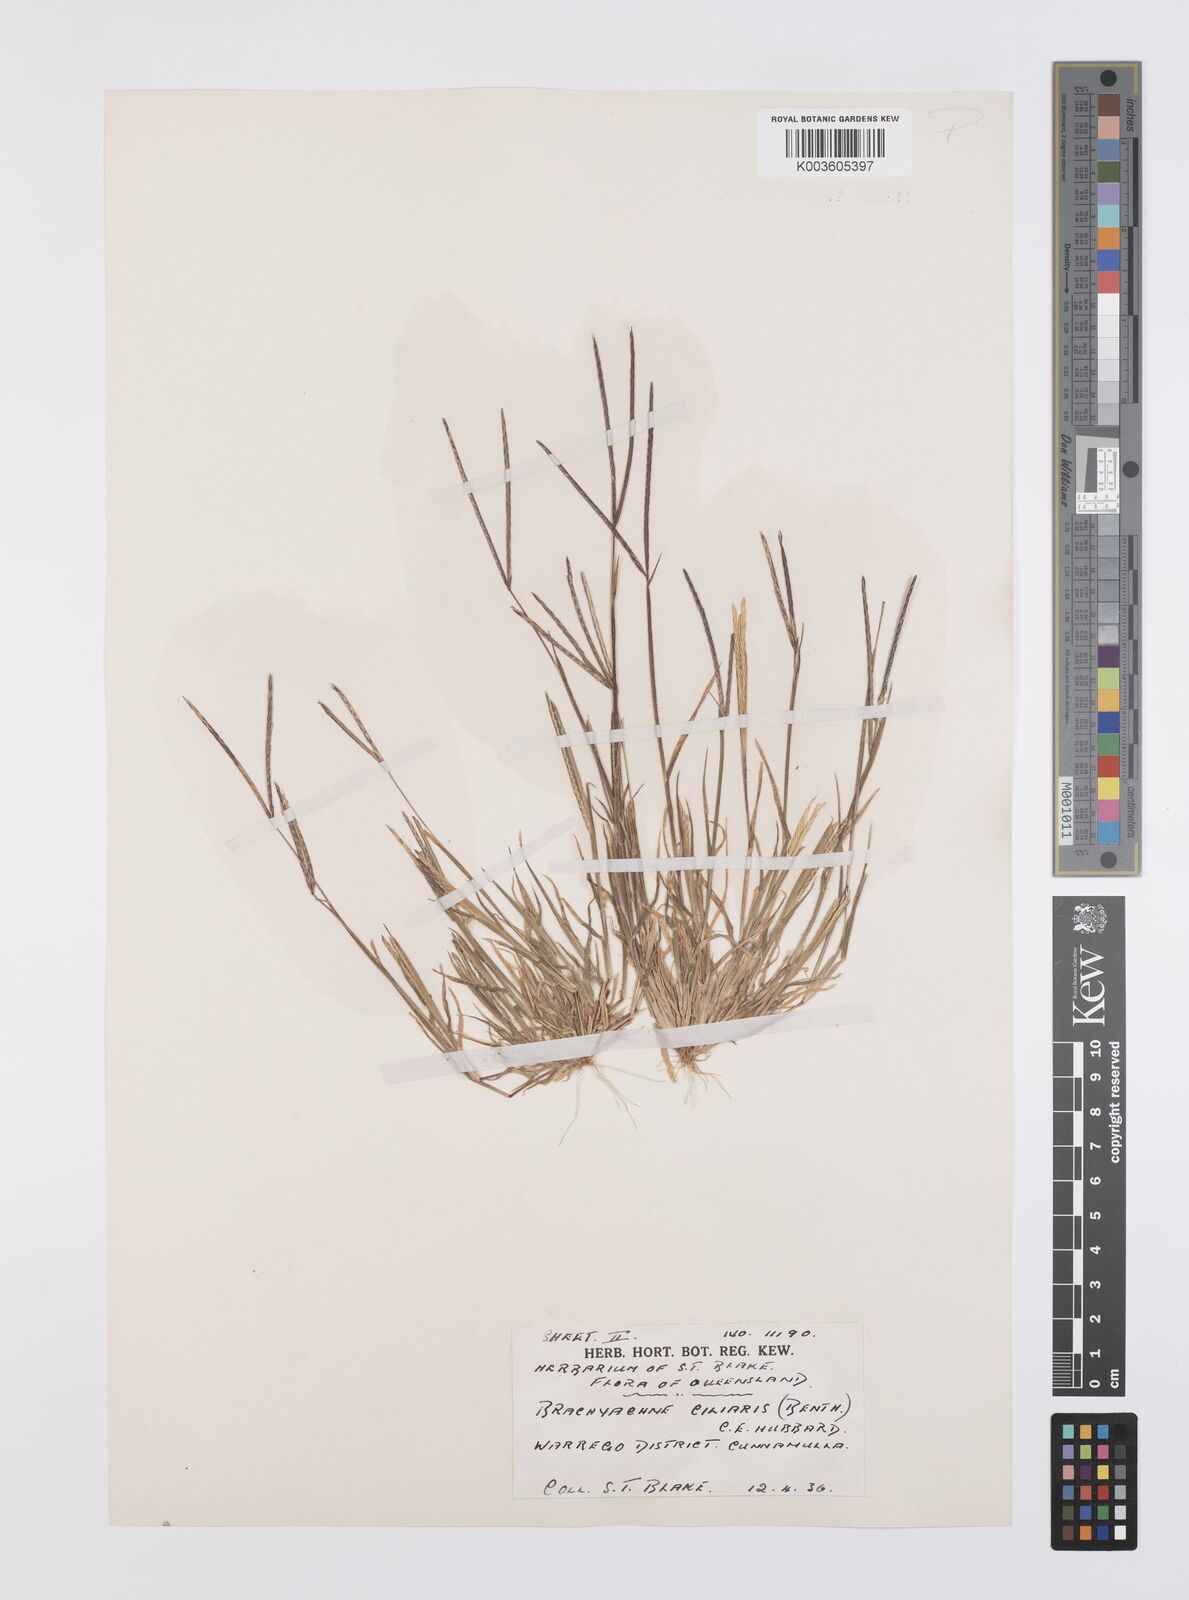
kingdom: Plantae
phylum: Tracheophyta
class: Liliopsida
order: Poales
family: Poaceae
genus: Cynodon
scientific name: Cynodon simonii
